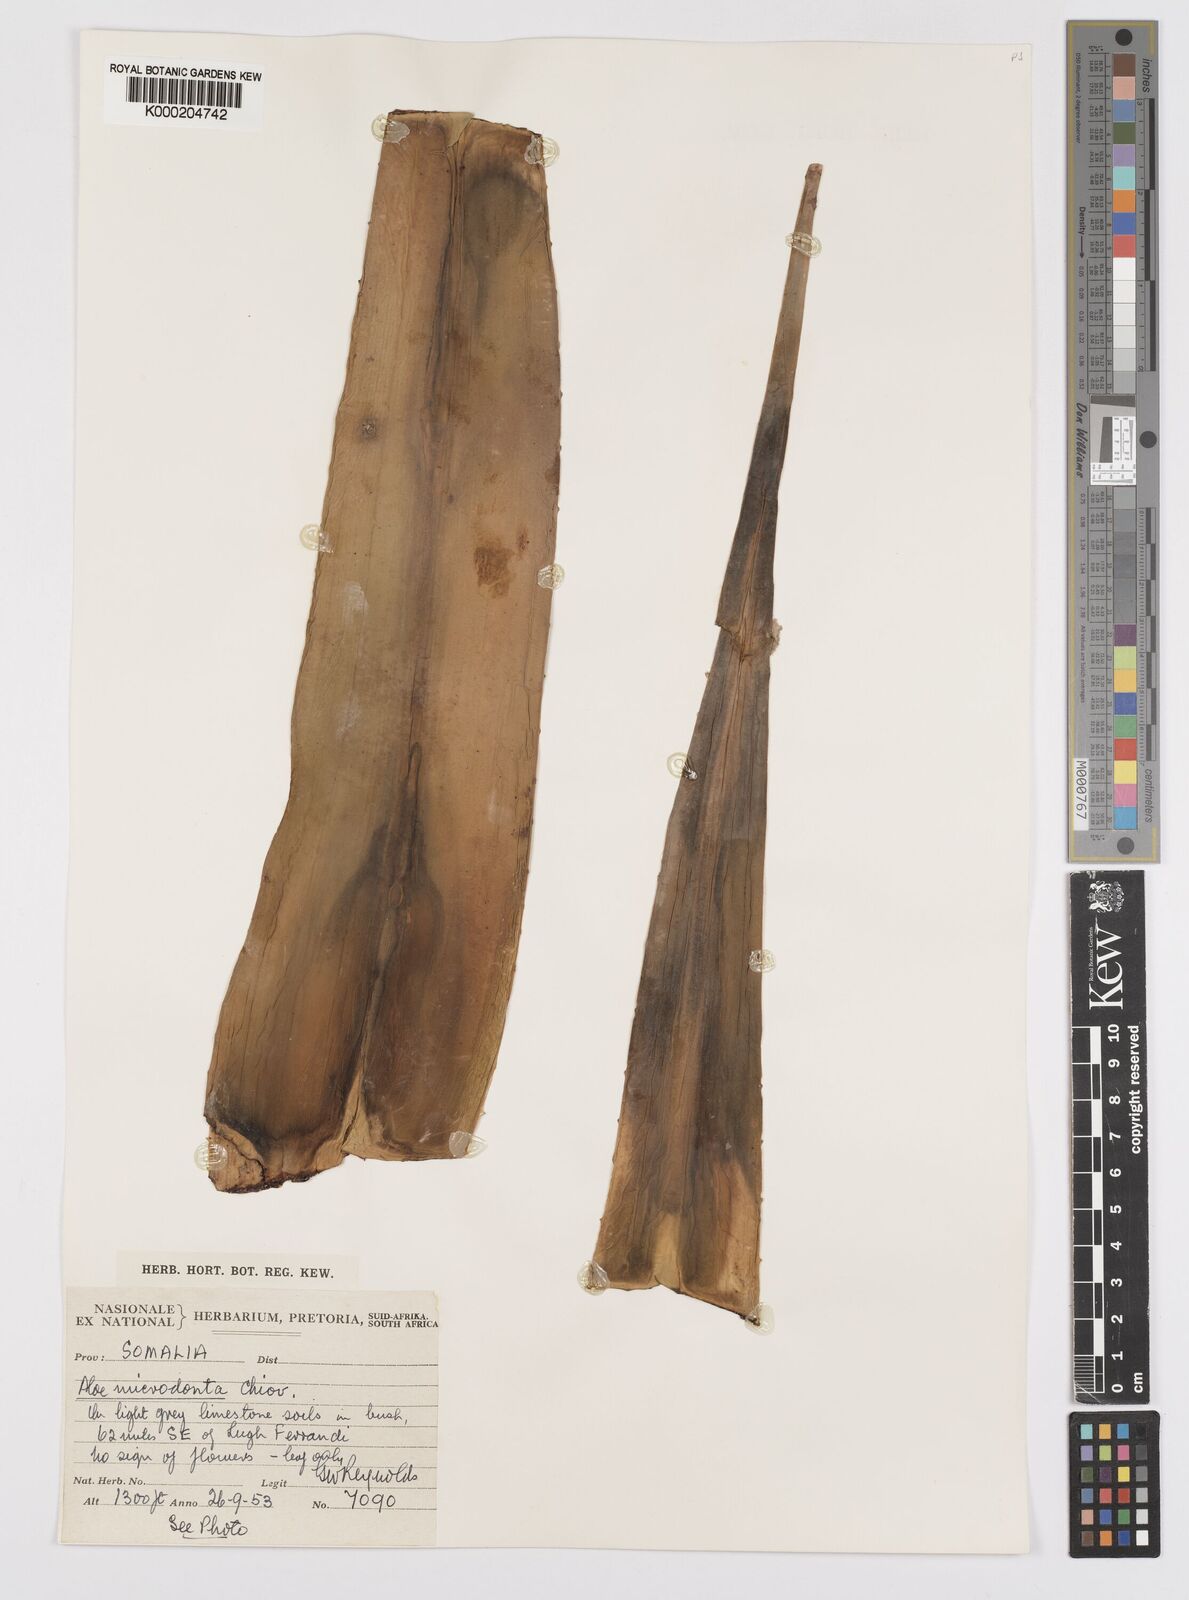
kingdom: Plantae
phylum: Tracheophyta
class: Liliopsida
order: Asparagales
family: Asphodelaceae
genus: Aloe
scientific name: Aloe microdonta
